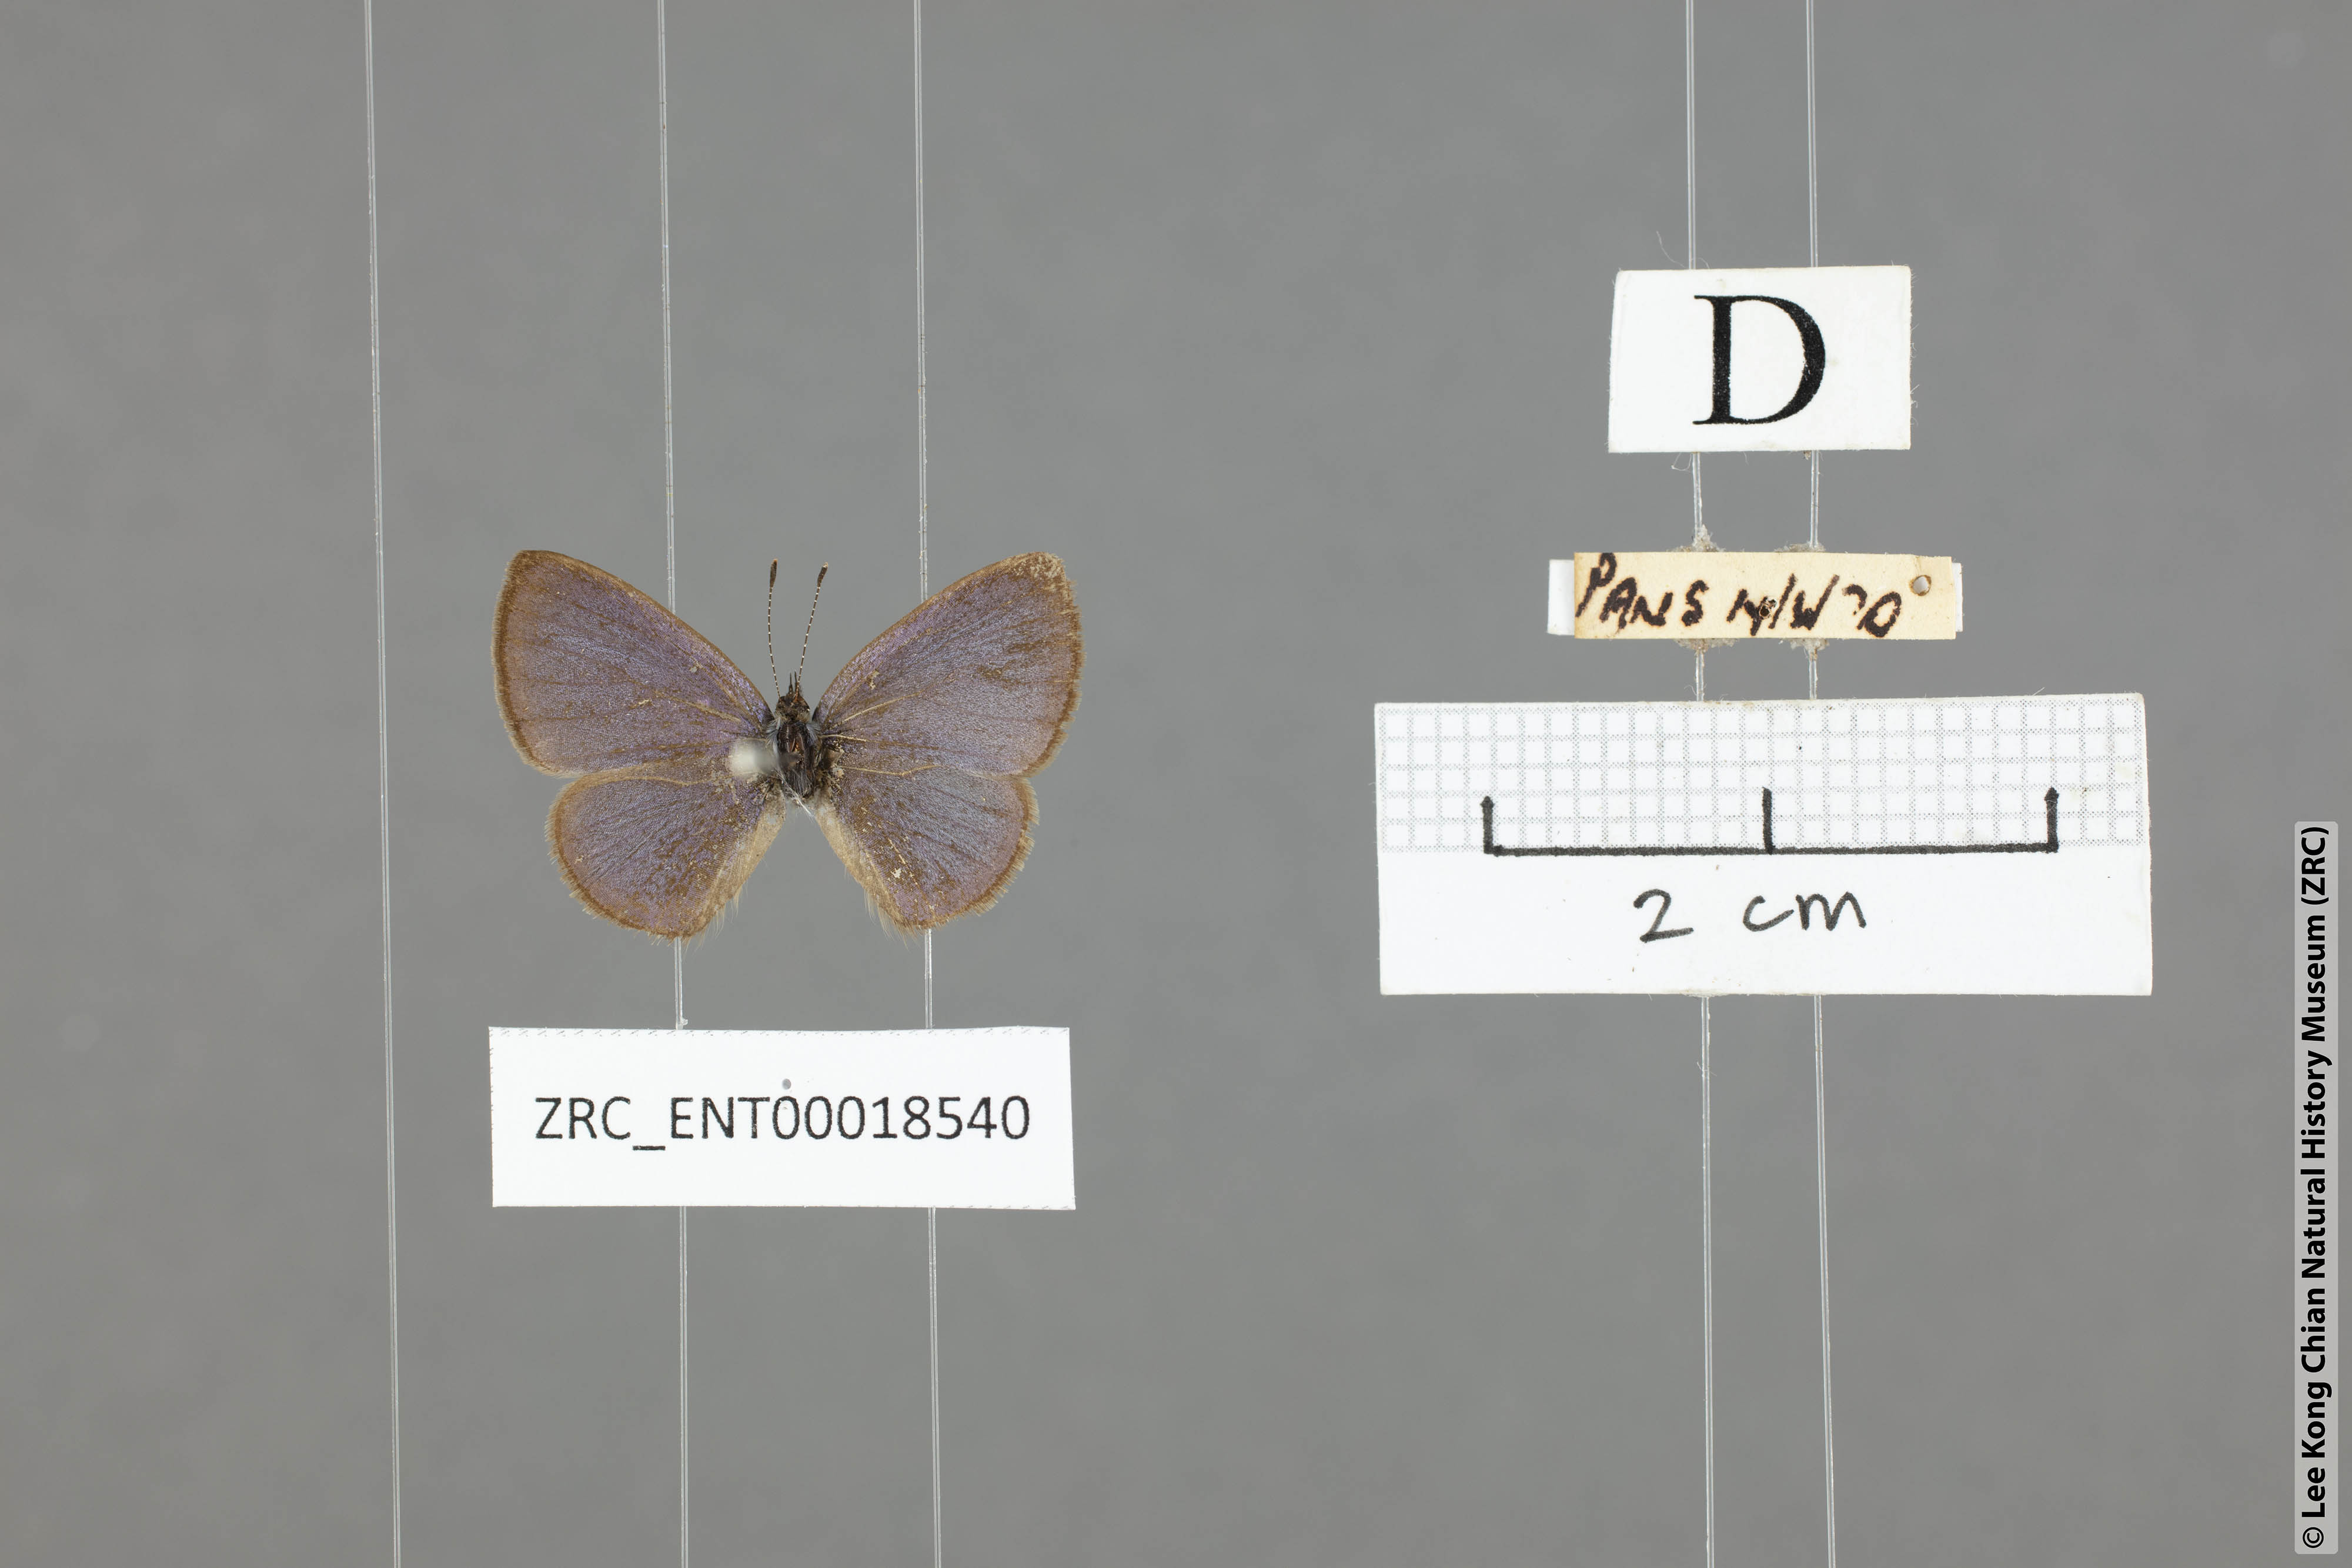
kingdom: Animalia
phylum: Arthropoda
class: Insecta
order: Lepidoptera
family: Lycaenidae
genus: Petrelaea
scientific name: Petrelaea dana
